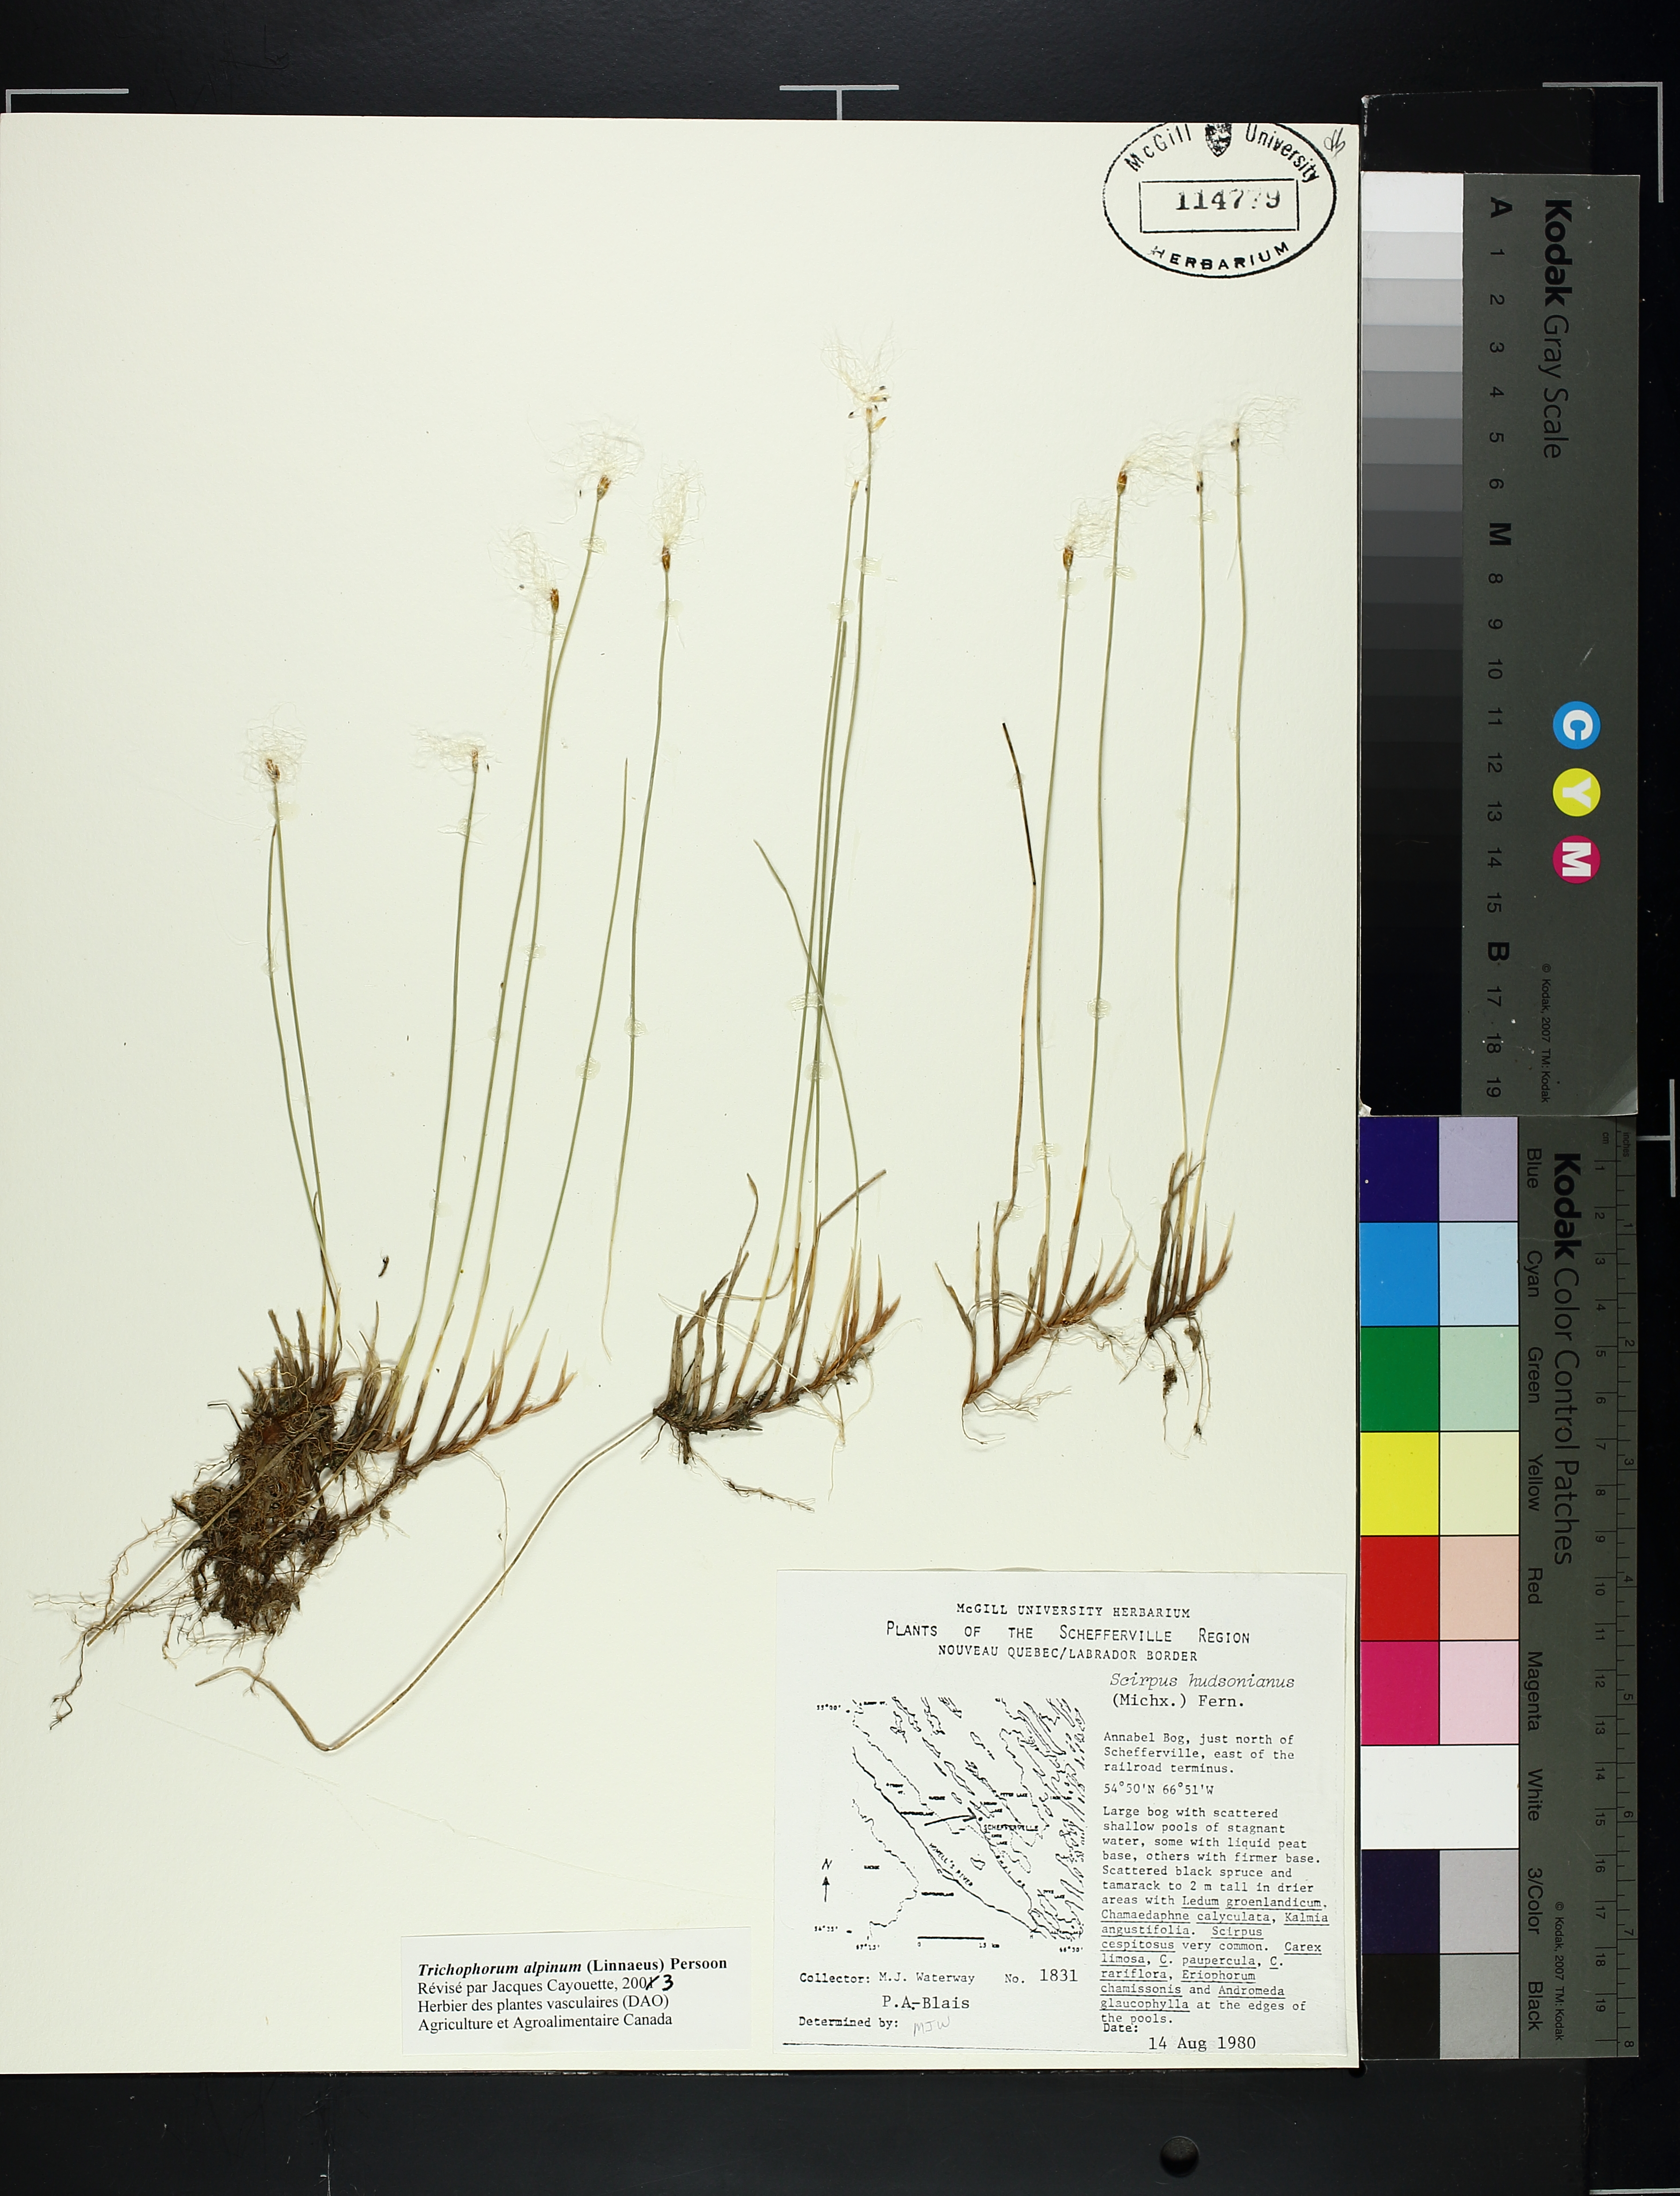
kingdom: Plantae
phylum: Tracheophyta
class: Liliopsida
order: Poales
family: Cyperaceae
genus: Trichophorum
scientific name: Trichophorum alpinum
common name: Alpine bulrush
